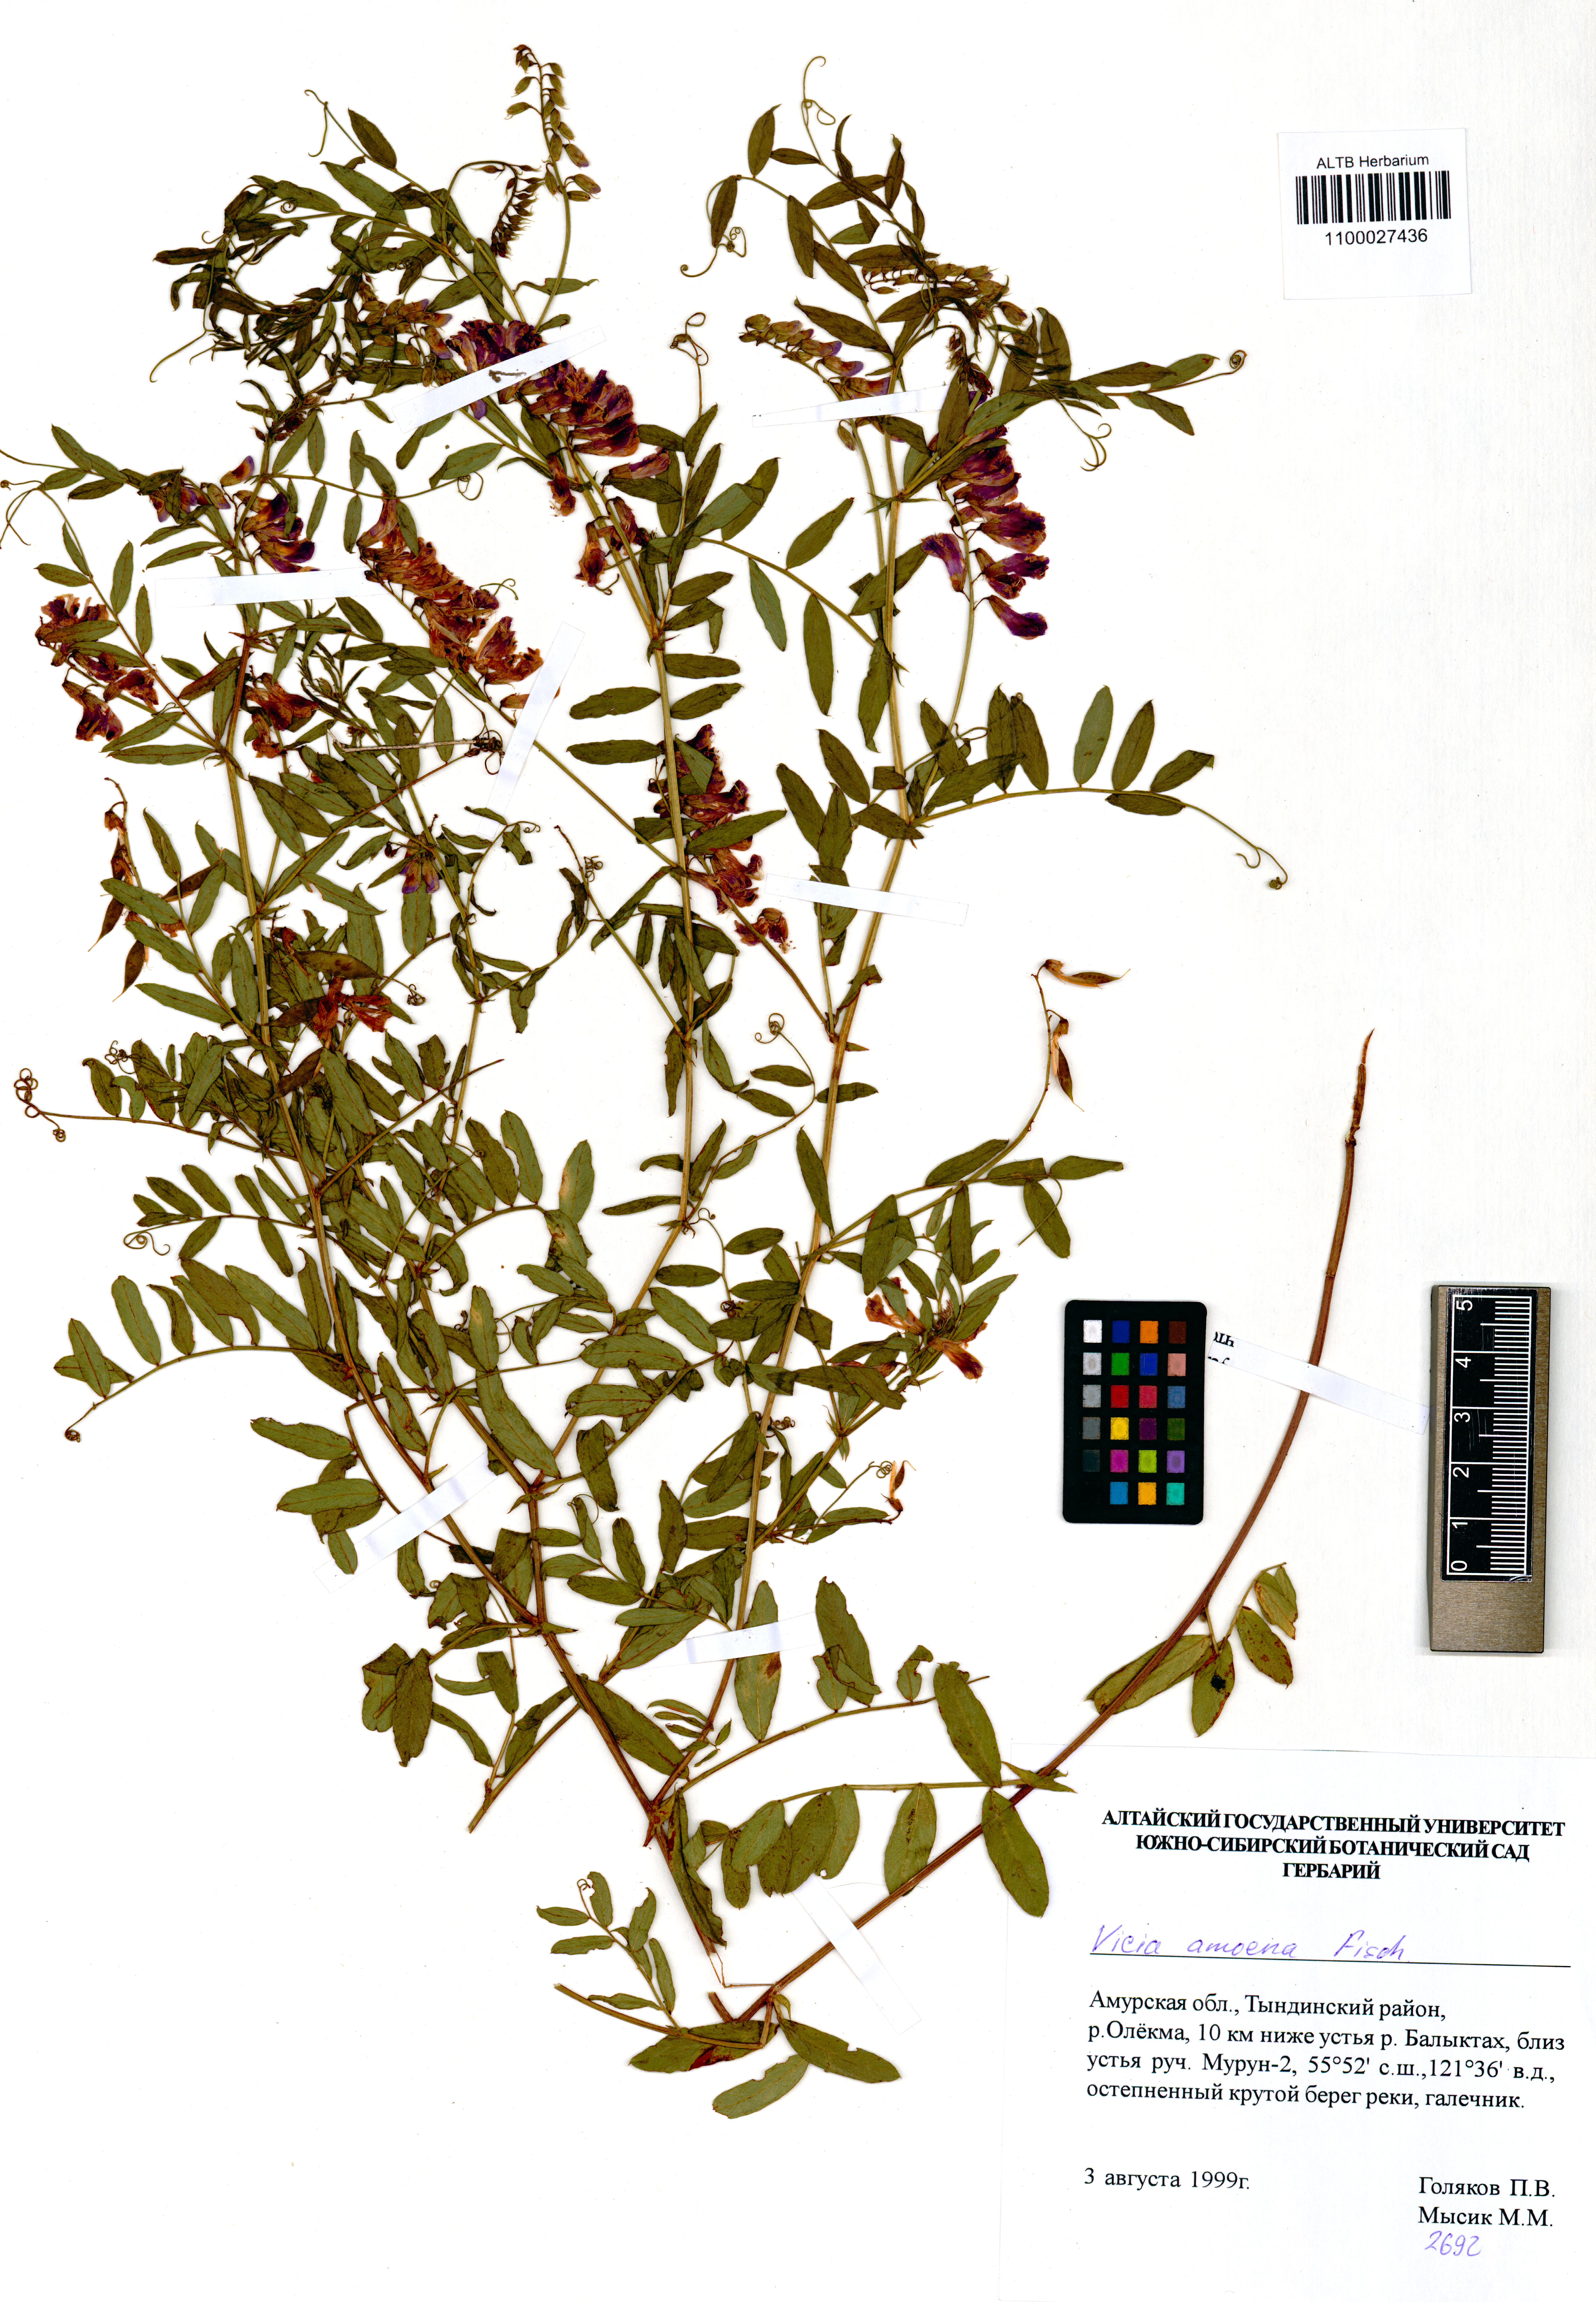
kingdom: Plantae
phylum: Tracheophyta
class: Magnoliopsida
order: Fabales
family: Fabaceae
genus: Vicia
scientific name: Vicia amoena
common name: Cheder ebs
